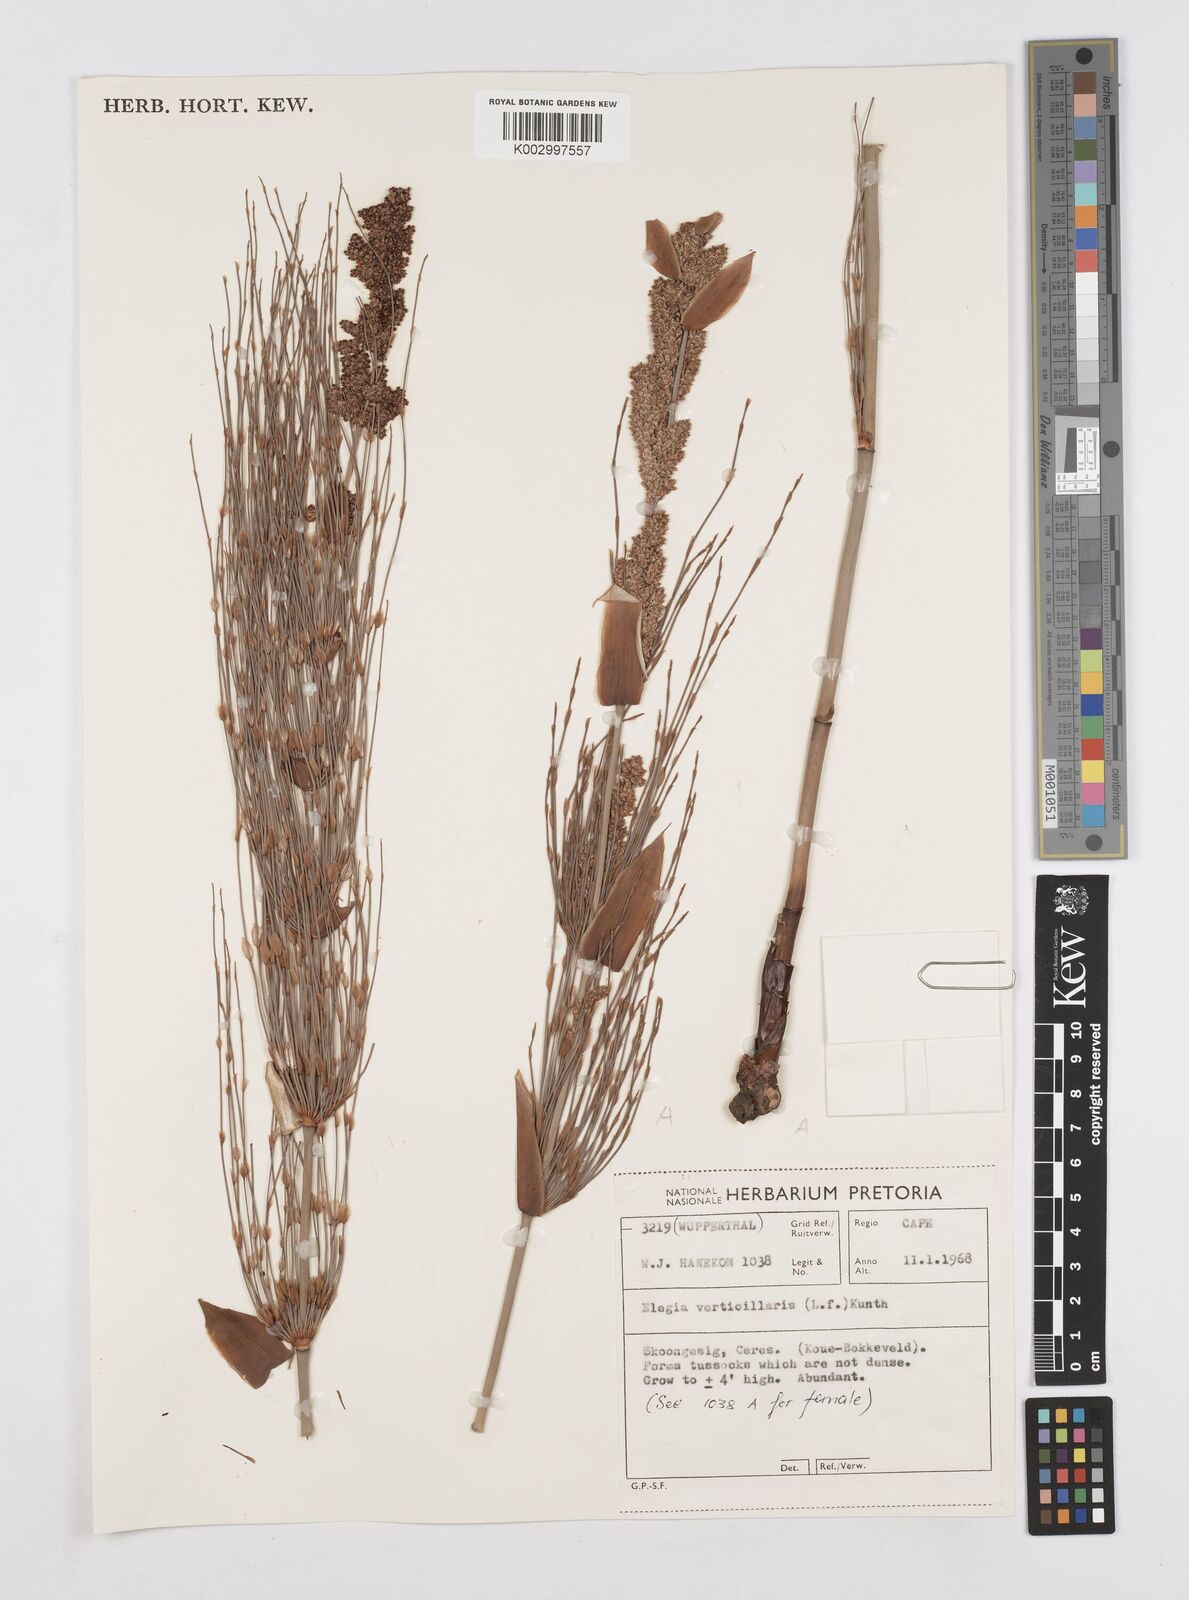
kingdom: Plantae
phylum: Tracheophyta
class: Liliopsida
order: Poales
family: Restionaceae
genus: Elegia
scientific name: Elegia capensis
